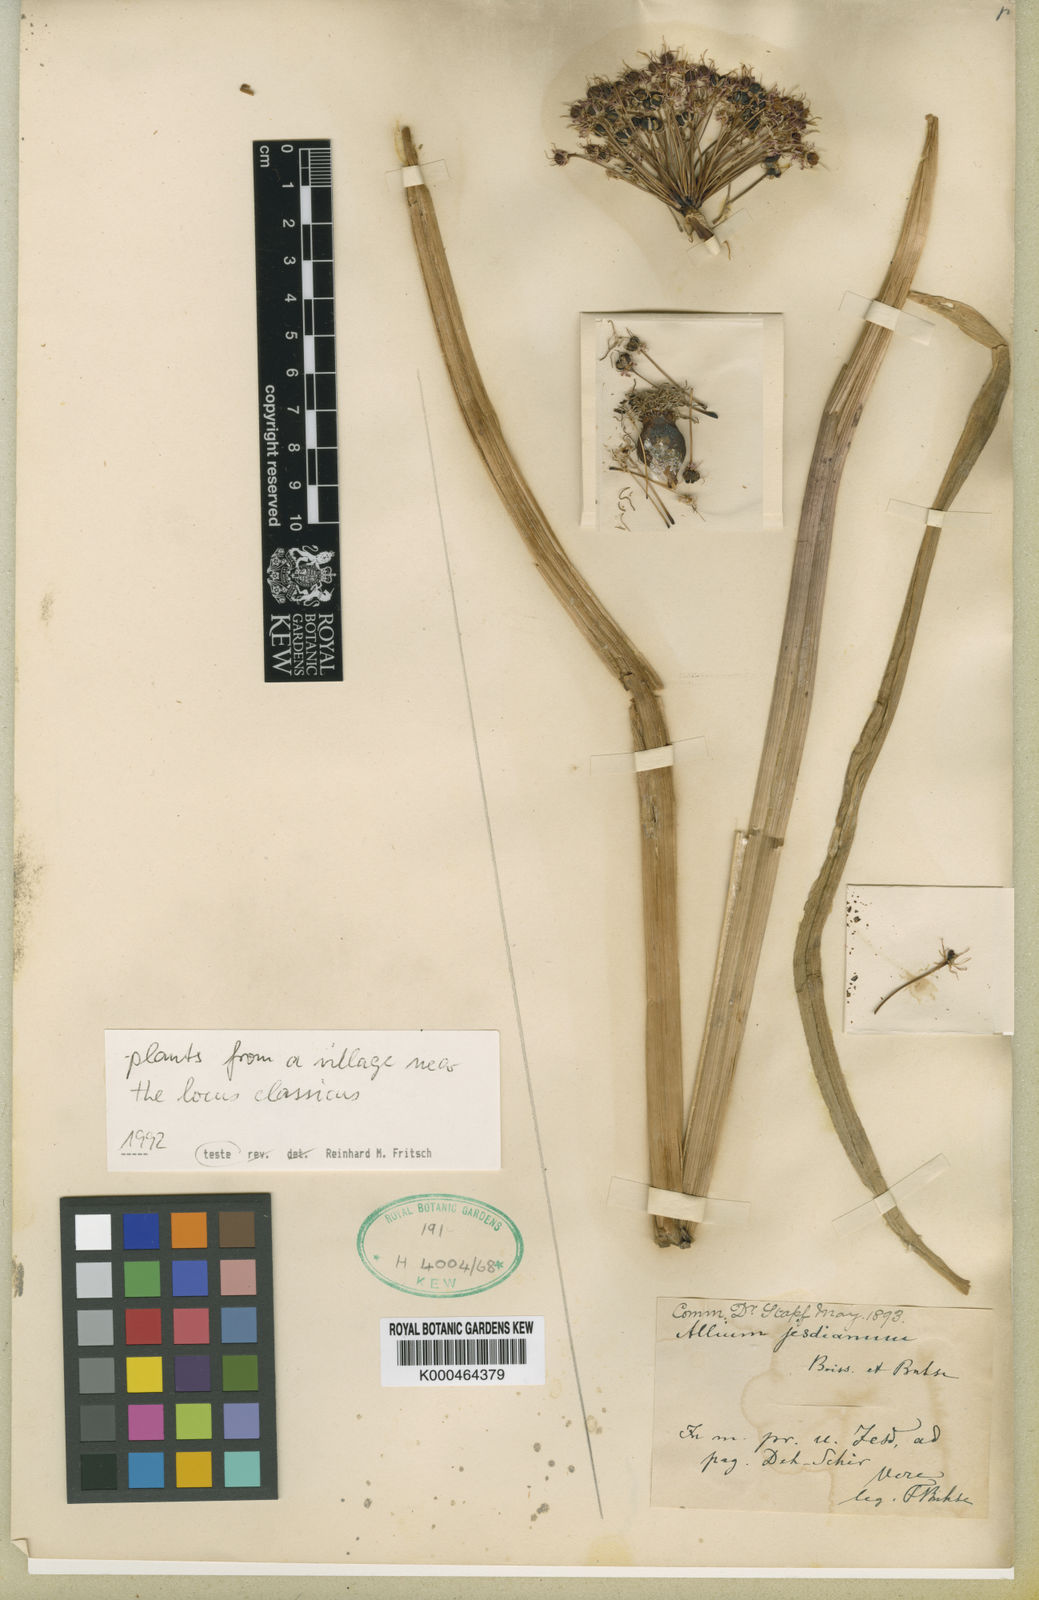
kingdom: Plantae
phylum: Tracheophyta
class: Liliopsida
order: Asparagales
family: Amaryllidaceae
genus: Allium
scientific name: Allium jesdianum
